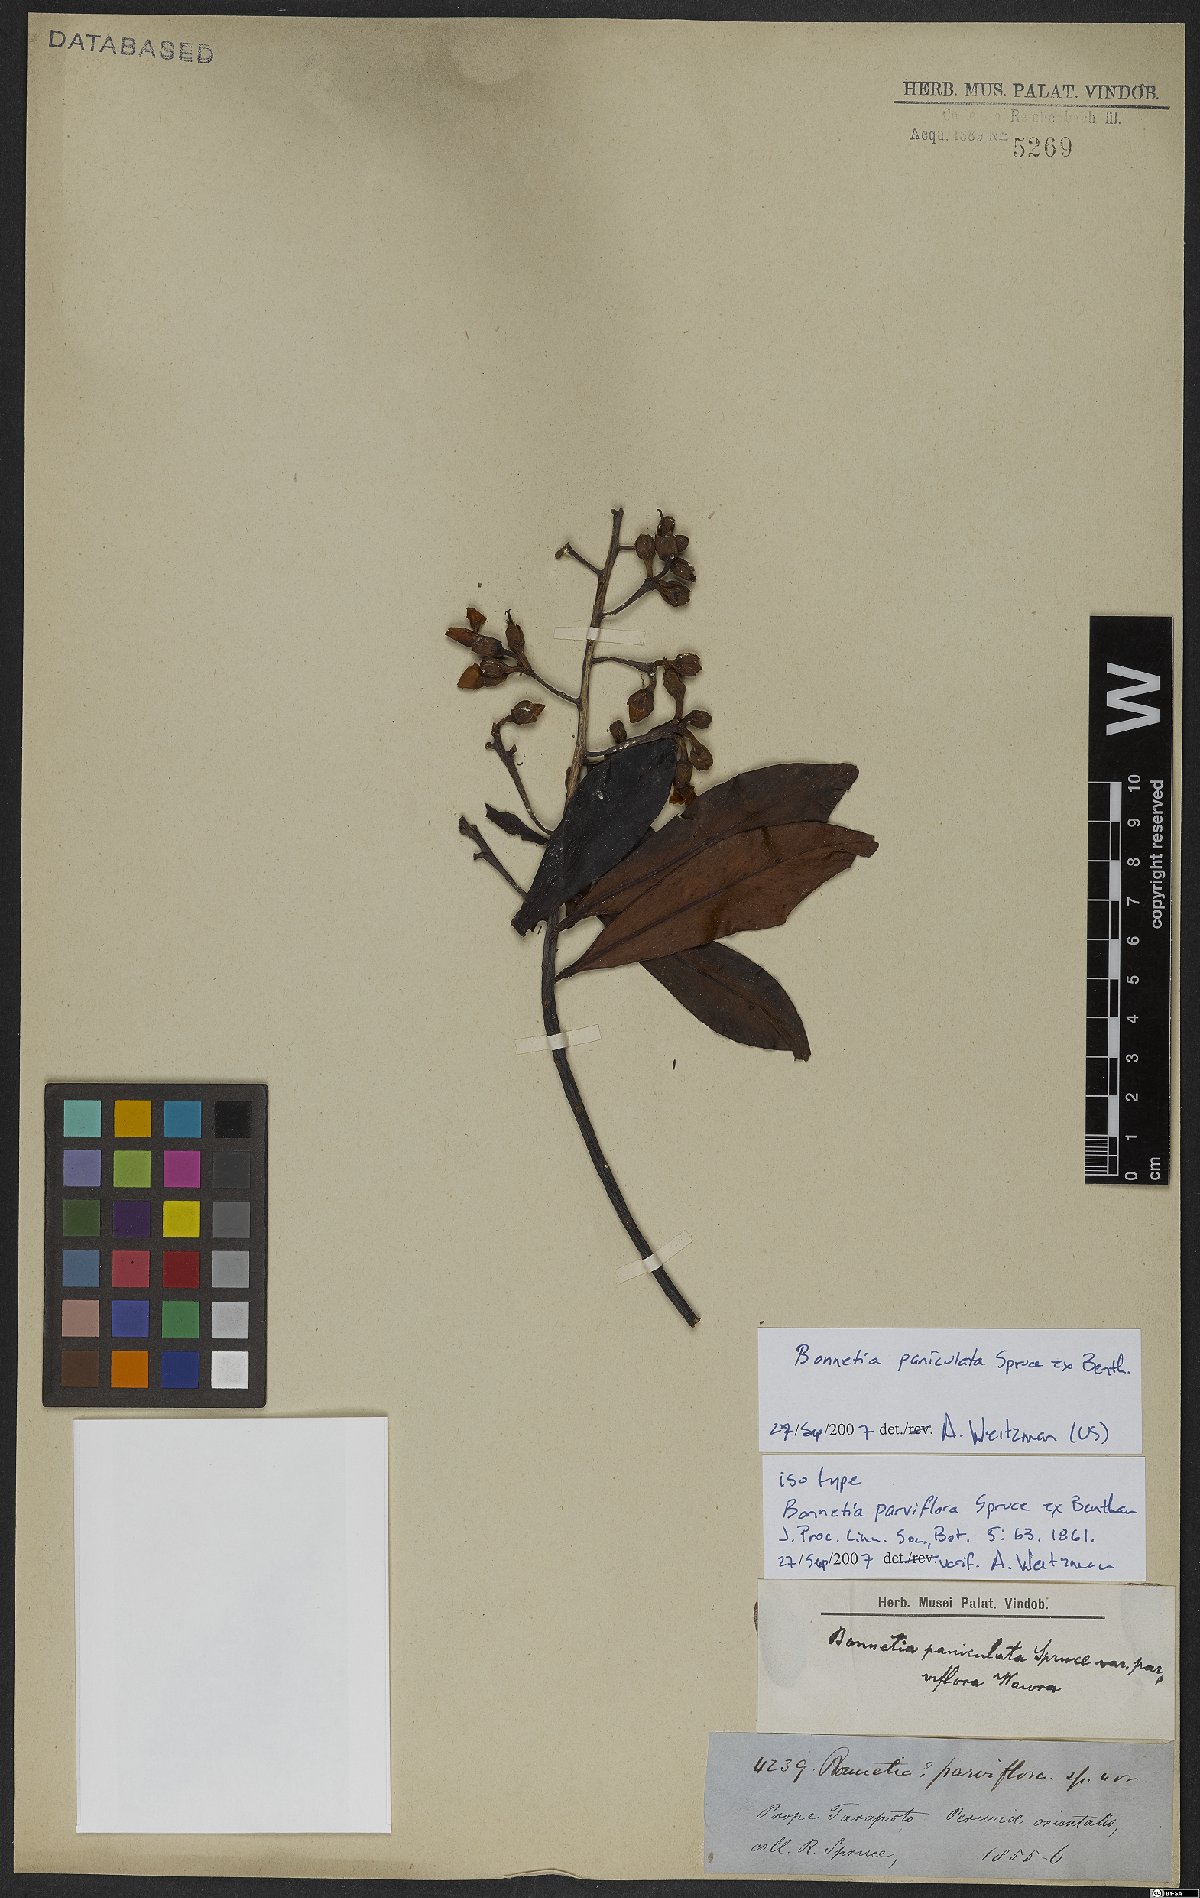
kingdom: Plantae
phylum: Tracheophyta
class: Magnoliopsida
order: Malpighiales
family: Bonnetiaceae
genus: Bonnetia
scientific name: Bonnetia paniculata
